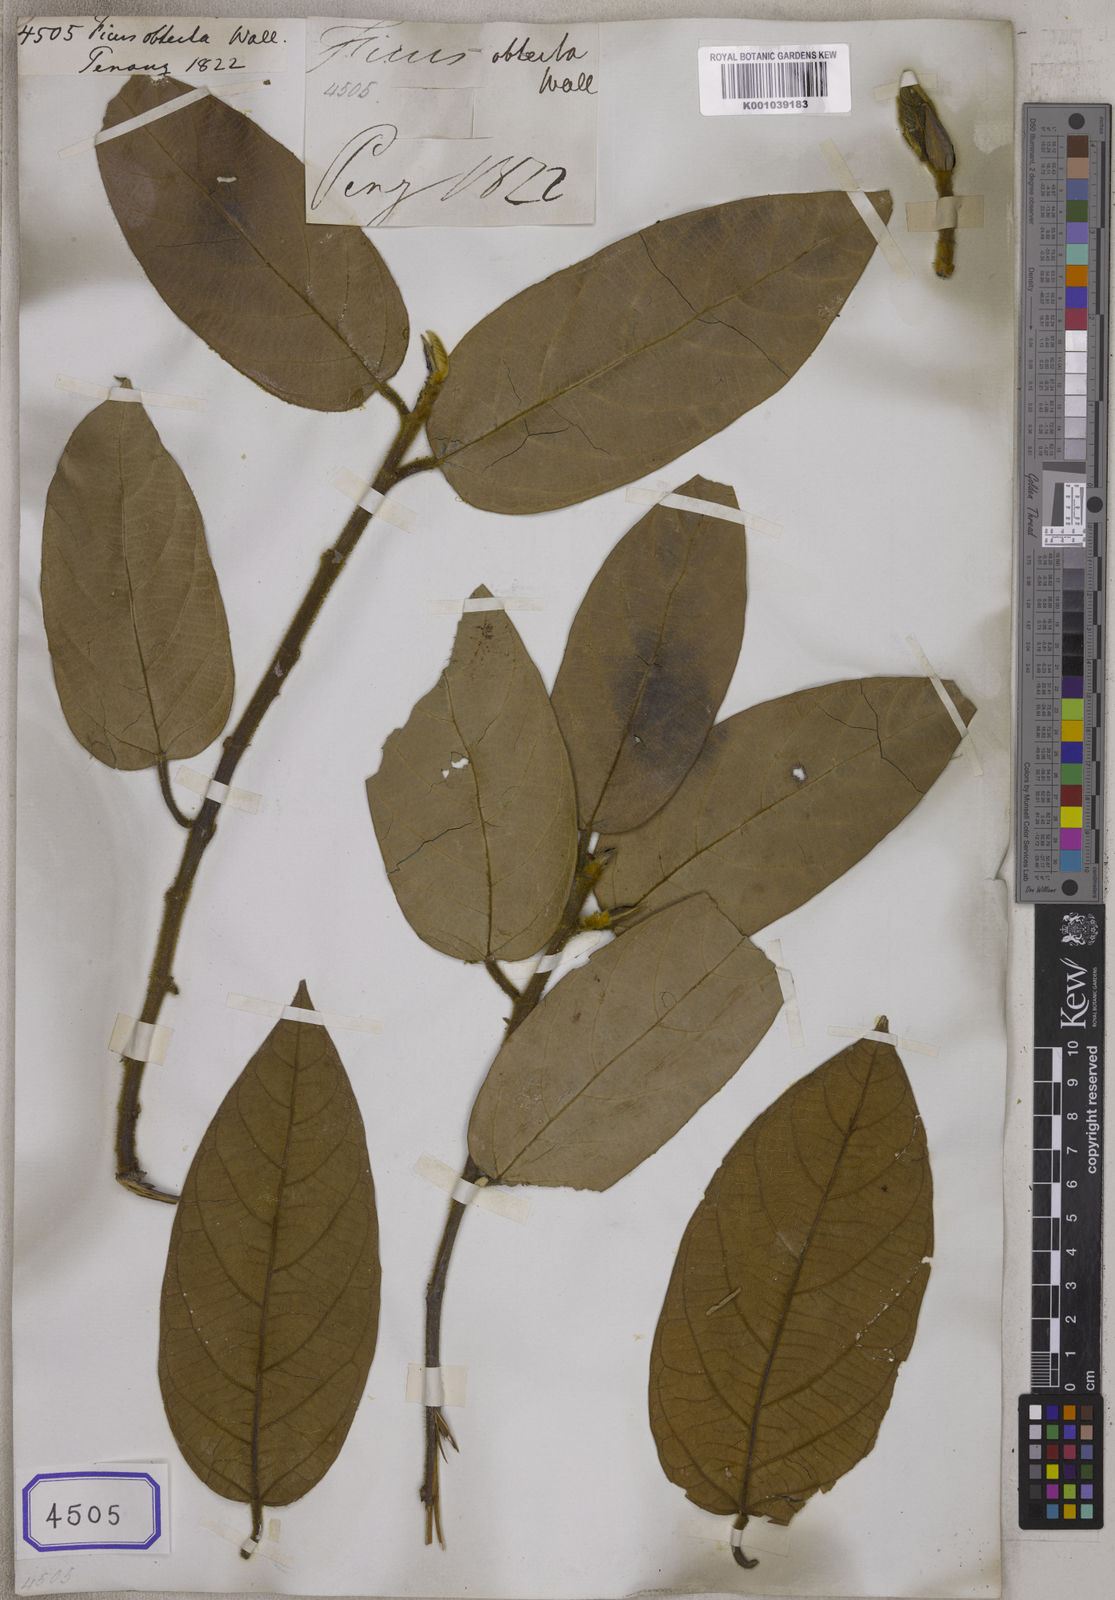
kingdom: Plantae
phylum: Tracheophyta
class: Magnoliopsida
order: Rosales
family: Moraceae
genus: Ficus
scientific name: Ficus
